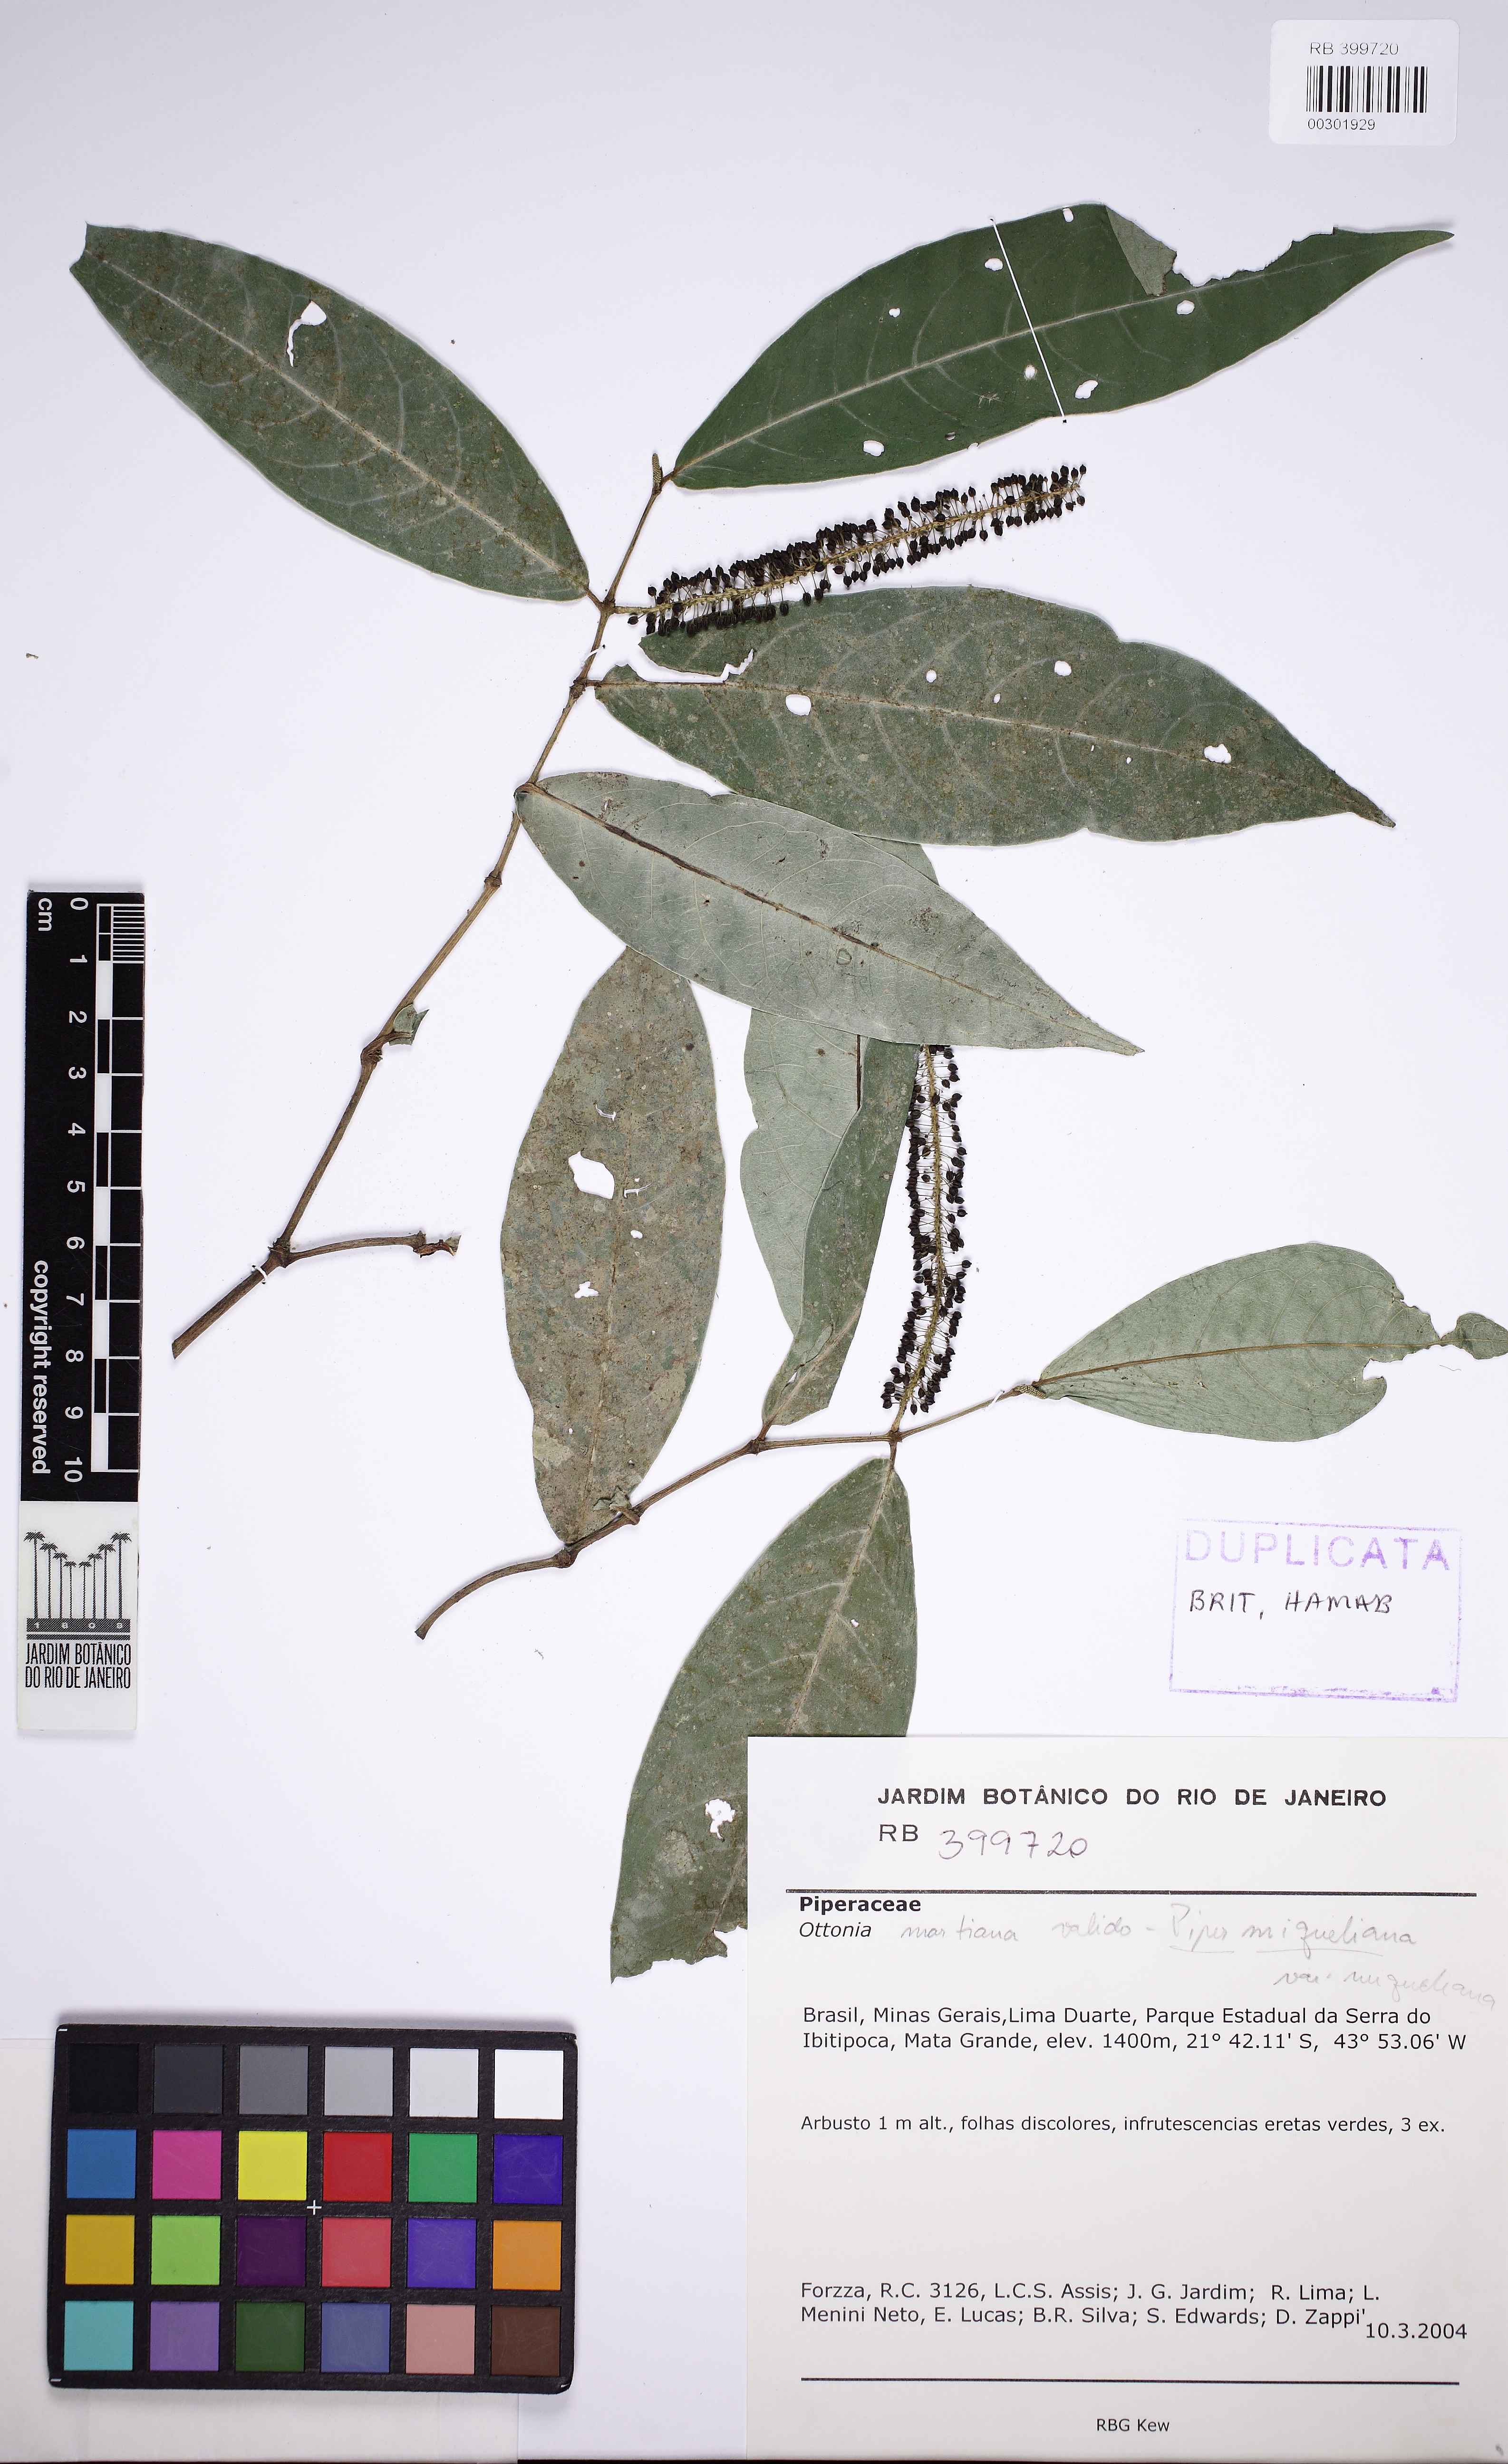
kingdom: Plantae
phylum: Tracheophyta
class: Magnoliopsida
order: Piperales
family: Piperaceae
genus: Piper
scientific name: Piper miquelianum
